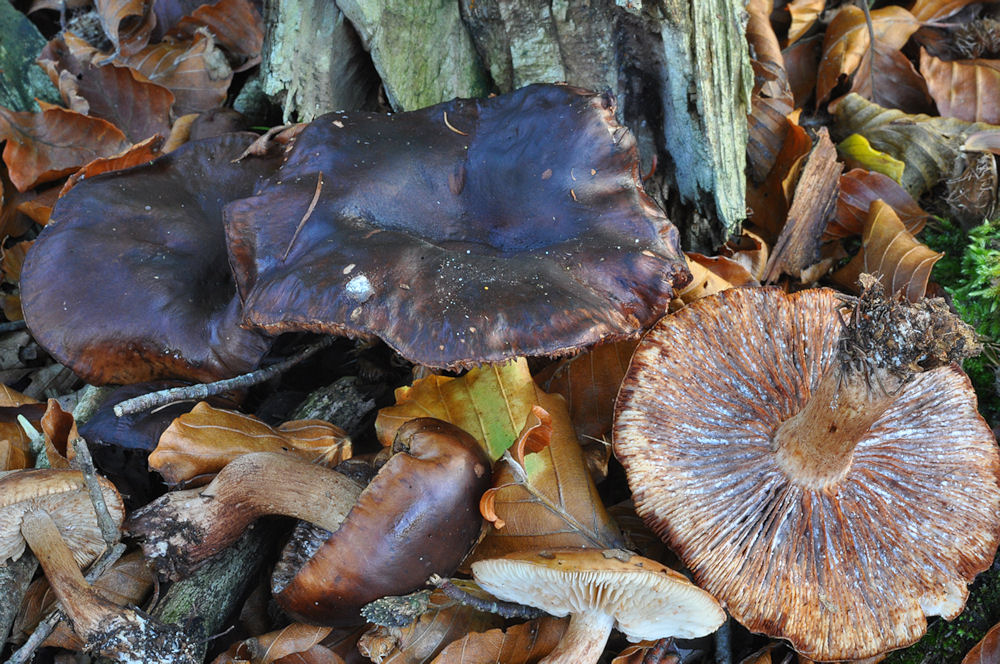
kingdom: Fungi
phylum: Basidiomycota
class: Agaricomycetes
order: Agaricales
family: Tricholomataceae
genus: Tricholoma
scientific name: Tricholoma ustale
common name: sveden ridderhat
